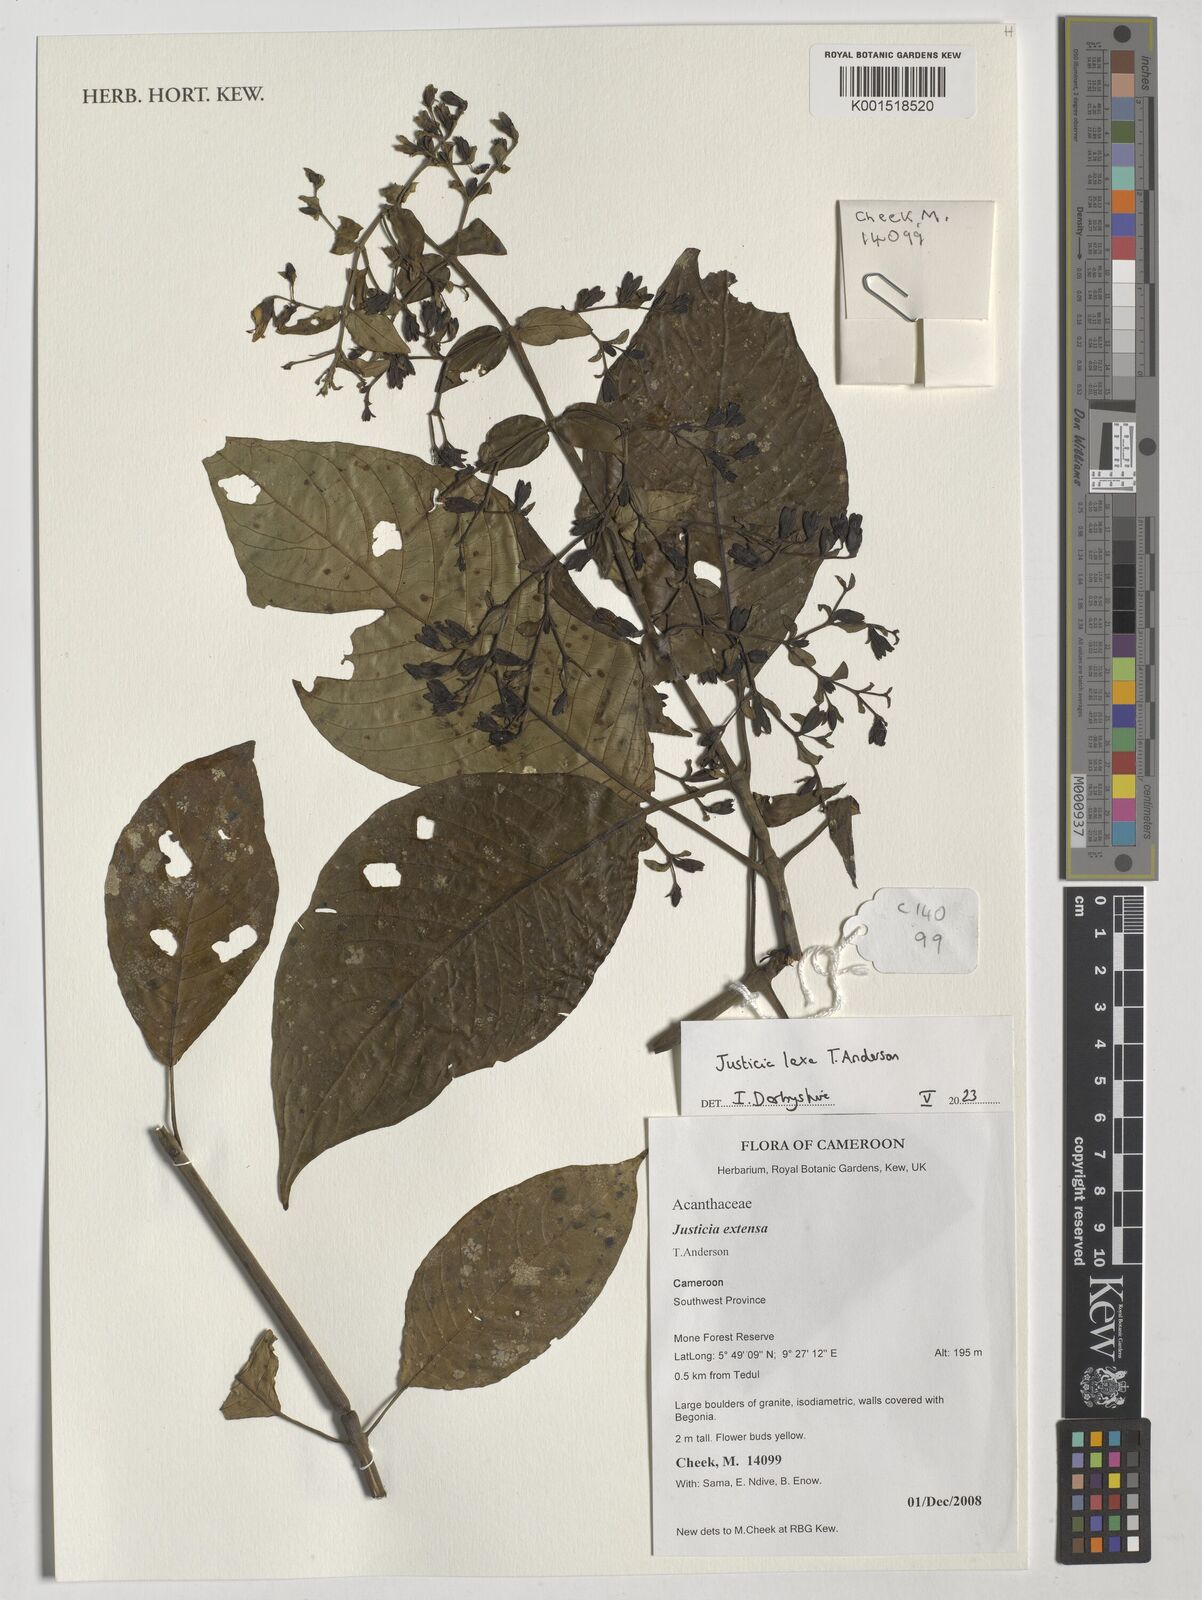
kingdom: Plantae
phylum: Tracheophyta
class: Magnoliopsida
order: Lamiales
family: Acanthaceae
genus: Justicia
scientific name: Justicia laxa
